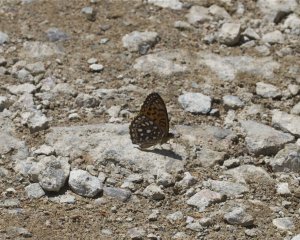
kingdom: Animalia
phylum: Arthropoda
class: Insecta
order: Lepidoptera
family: Nymphalidae
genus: Speyeria
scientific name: Speyeria atlantis
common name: Atlantis Fritillary
